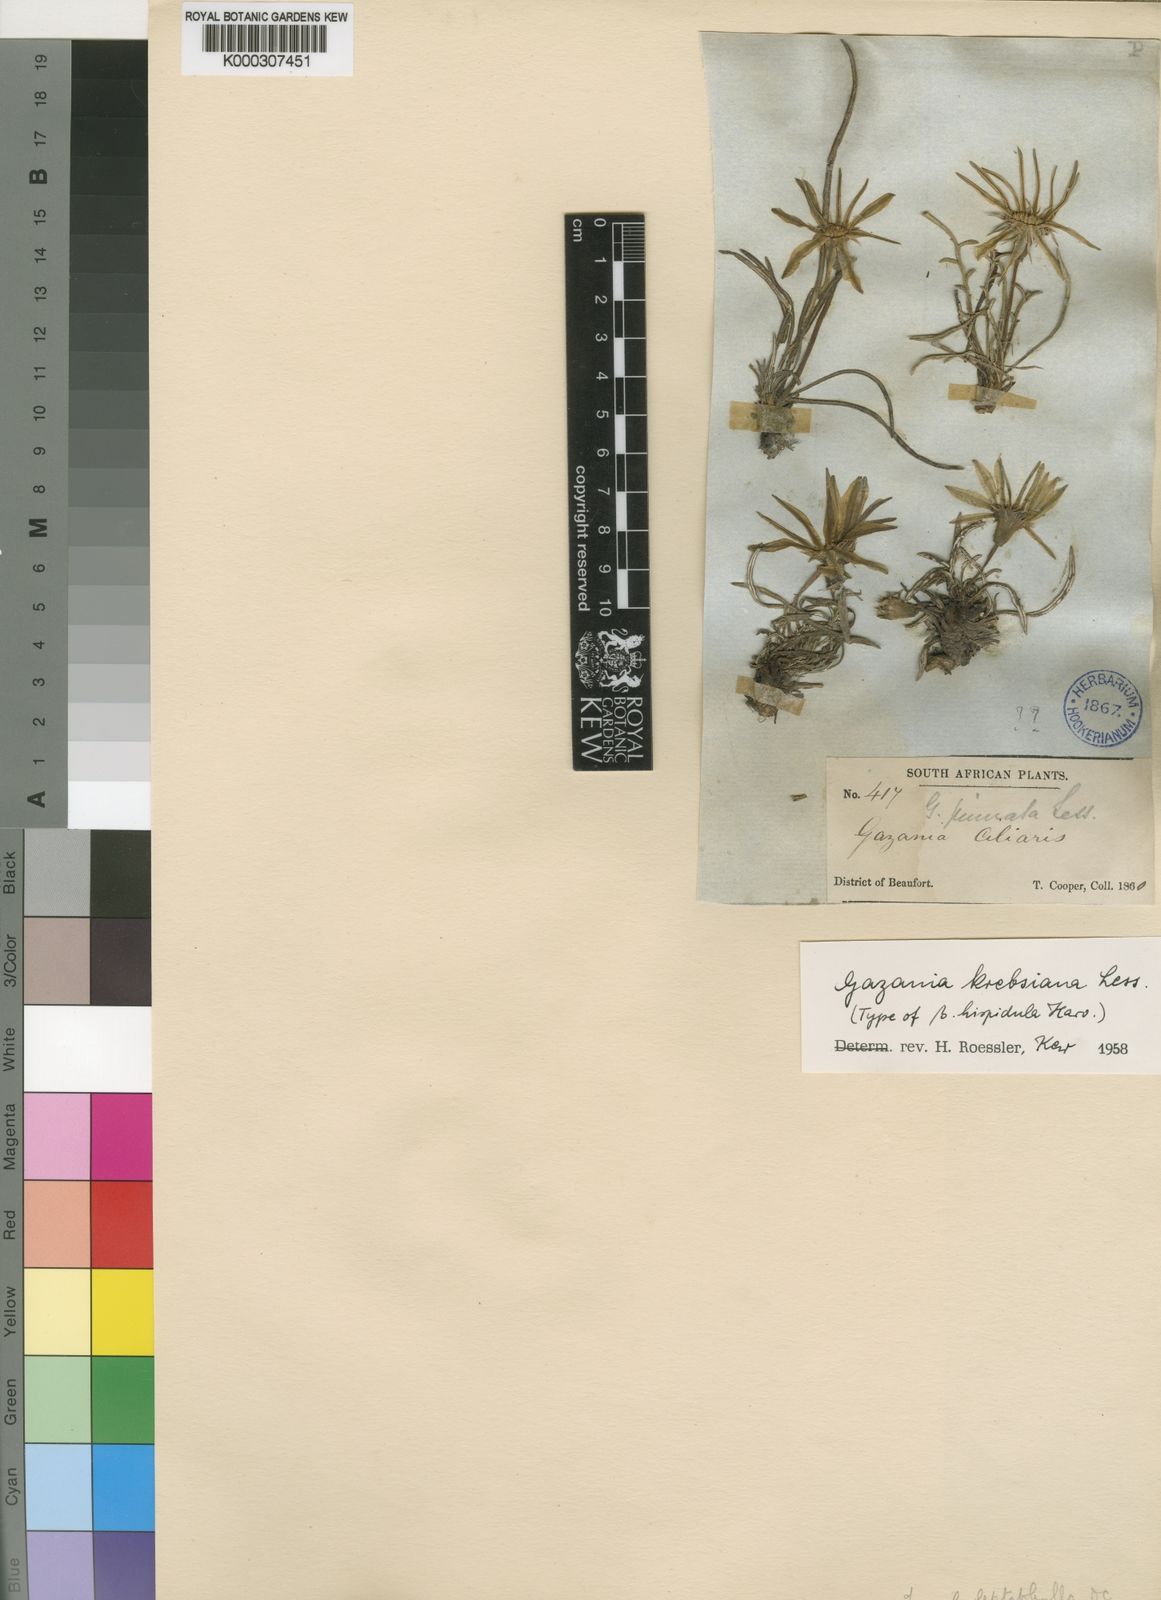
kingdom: Plantae
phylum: Tracheophyta
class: Magnoliopsida
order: Asterales
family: Asteraceae
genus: Gazania
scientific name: Gazania krebsiana
